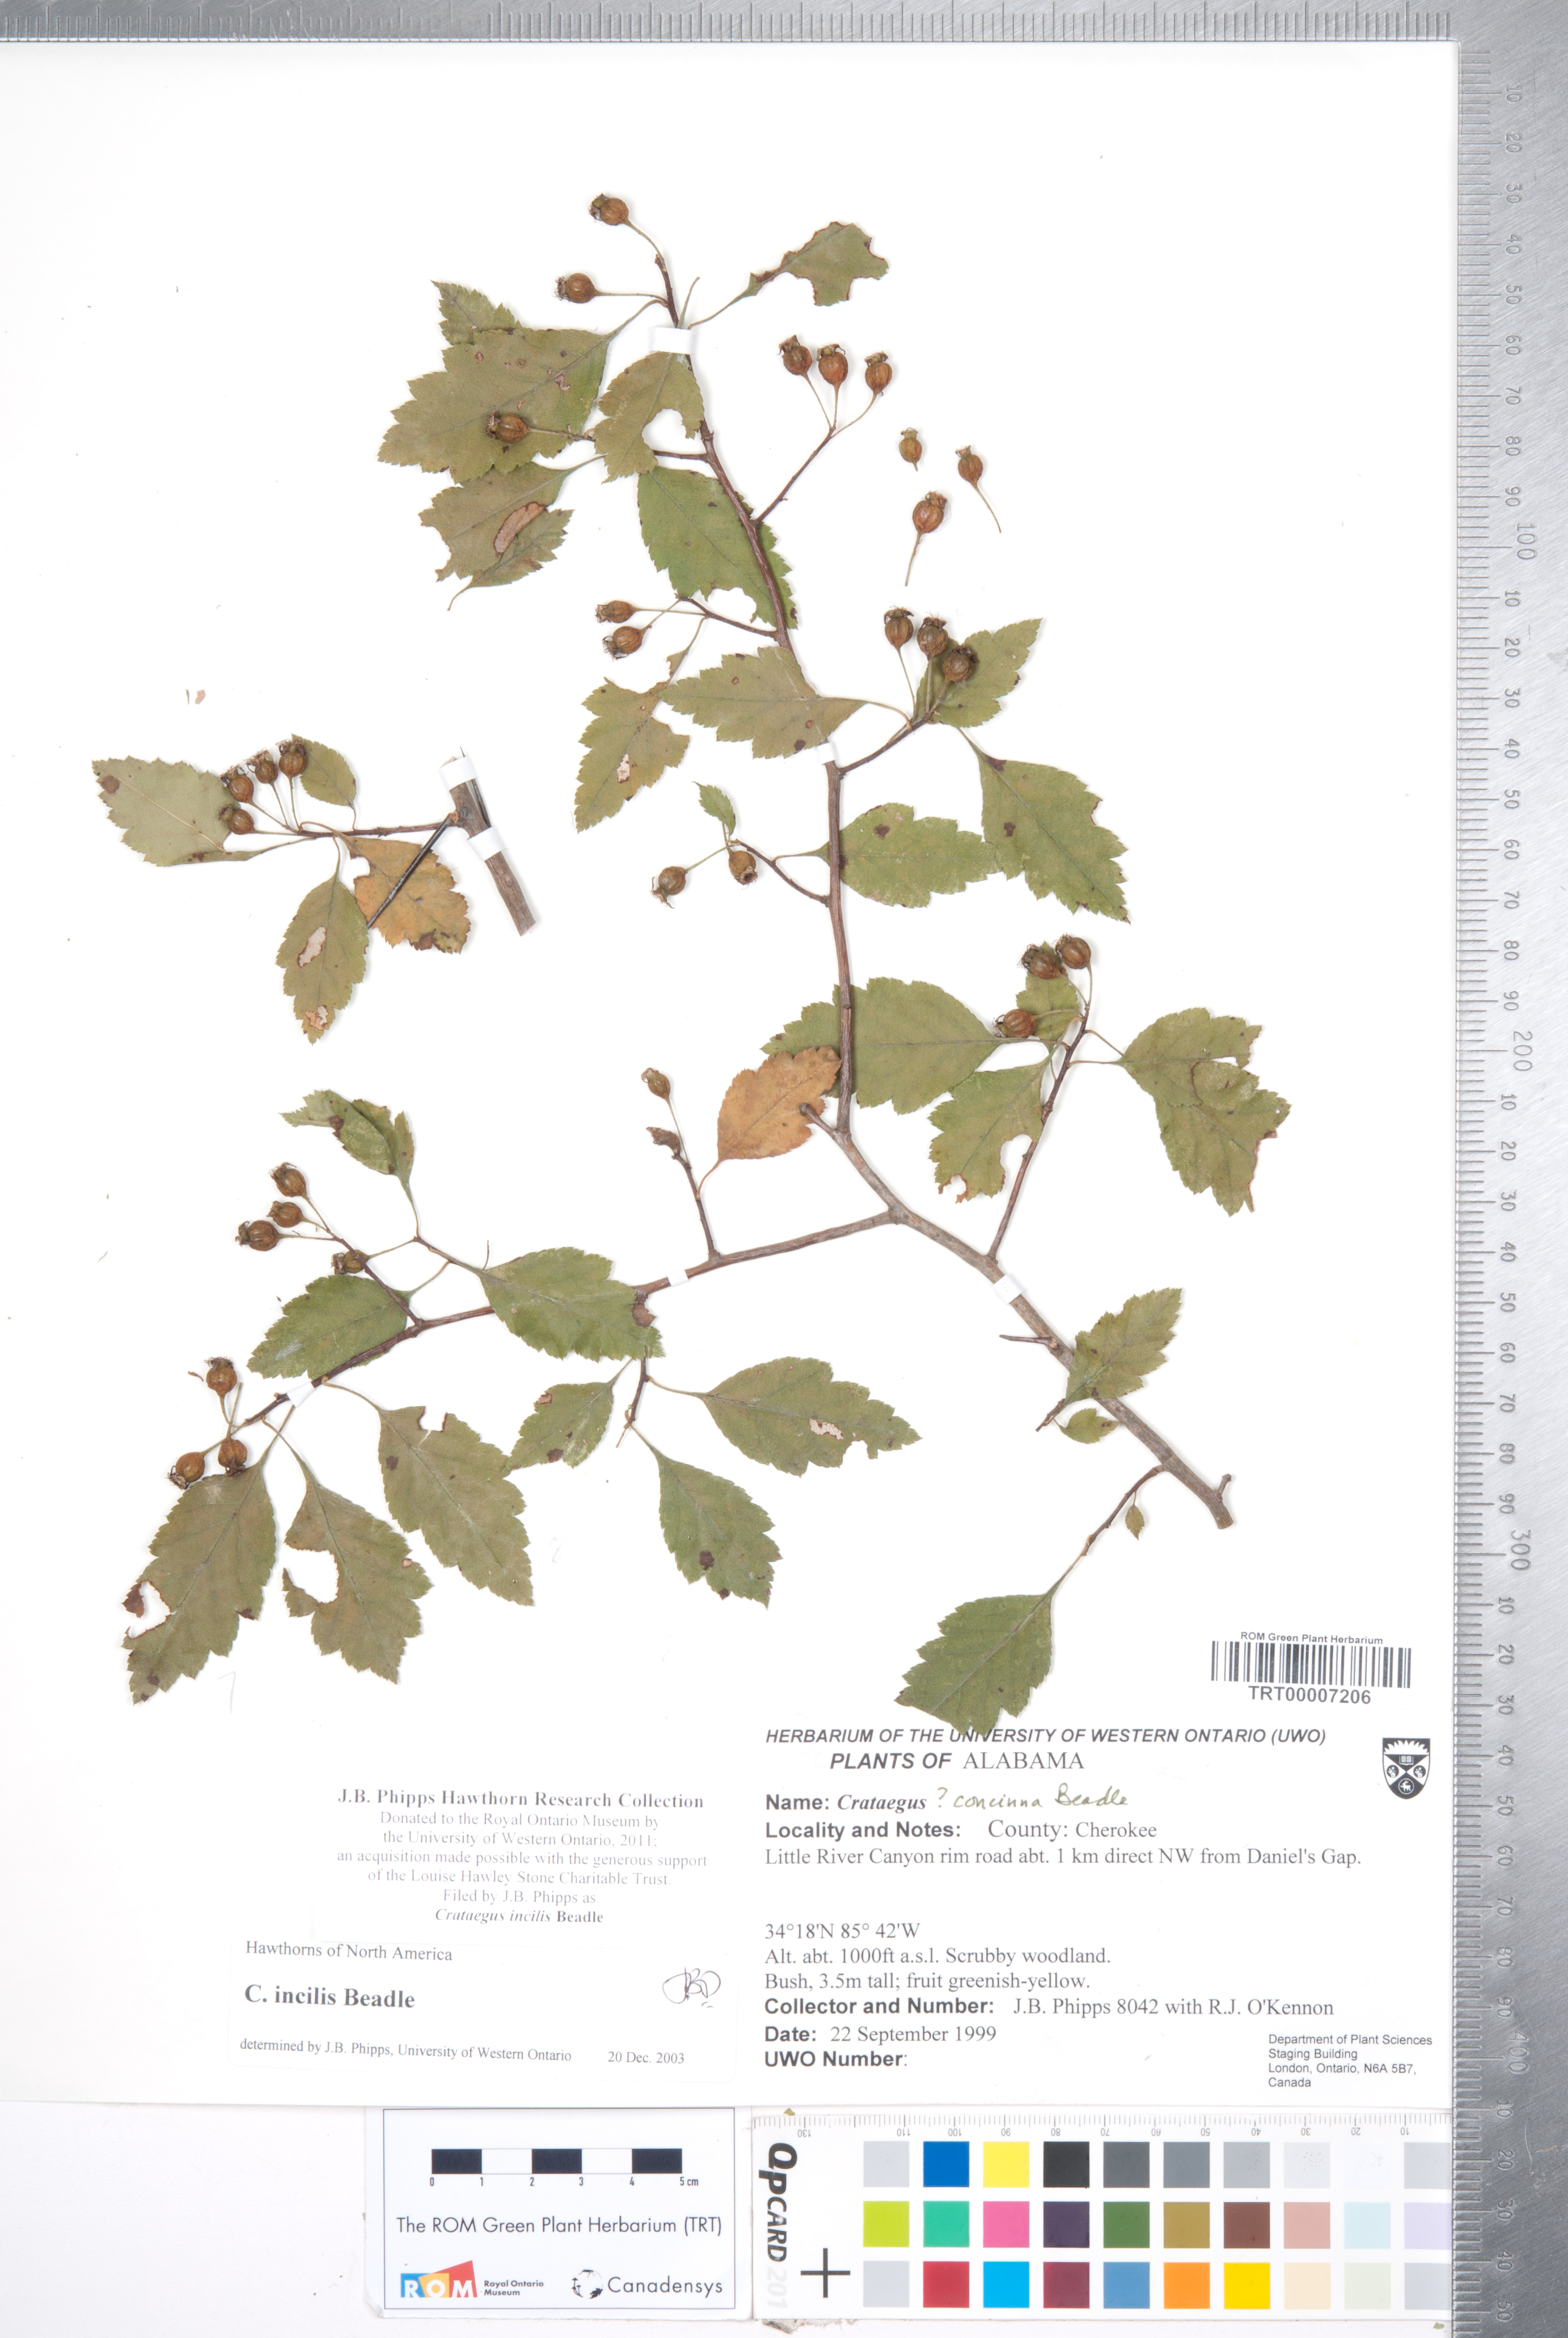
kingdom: Plantae
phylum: Tracheophyta
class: Magnoliopsida
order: Rosales
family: Rosaceae
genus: Crataegus
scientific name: Crataegus pulcherrima
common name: Beautiful hawthorn
